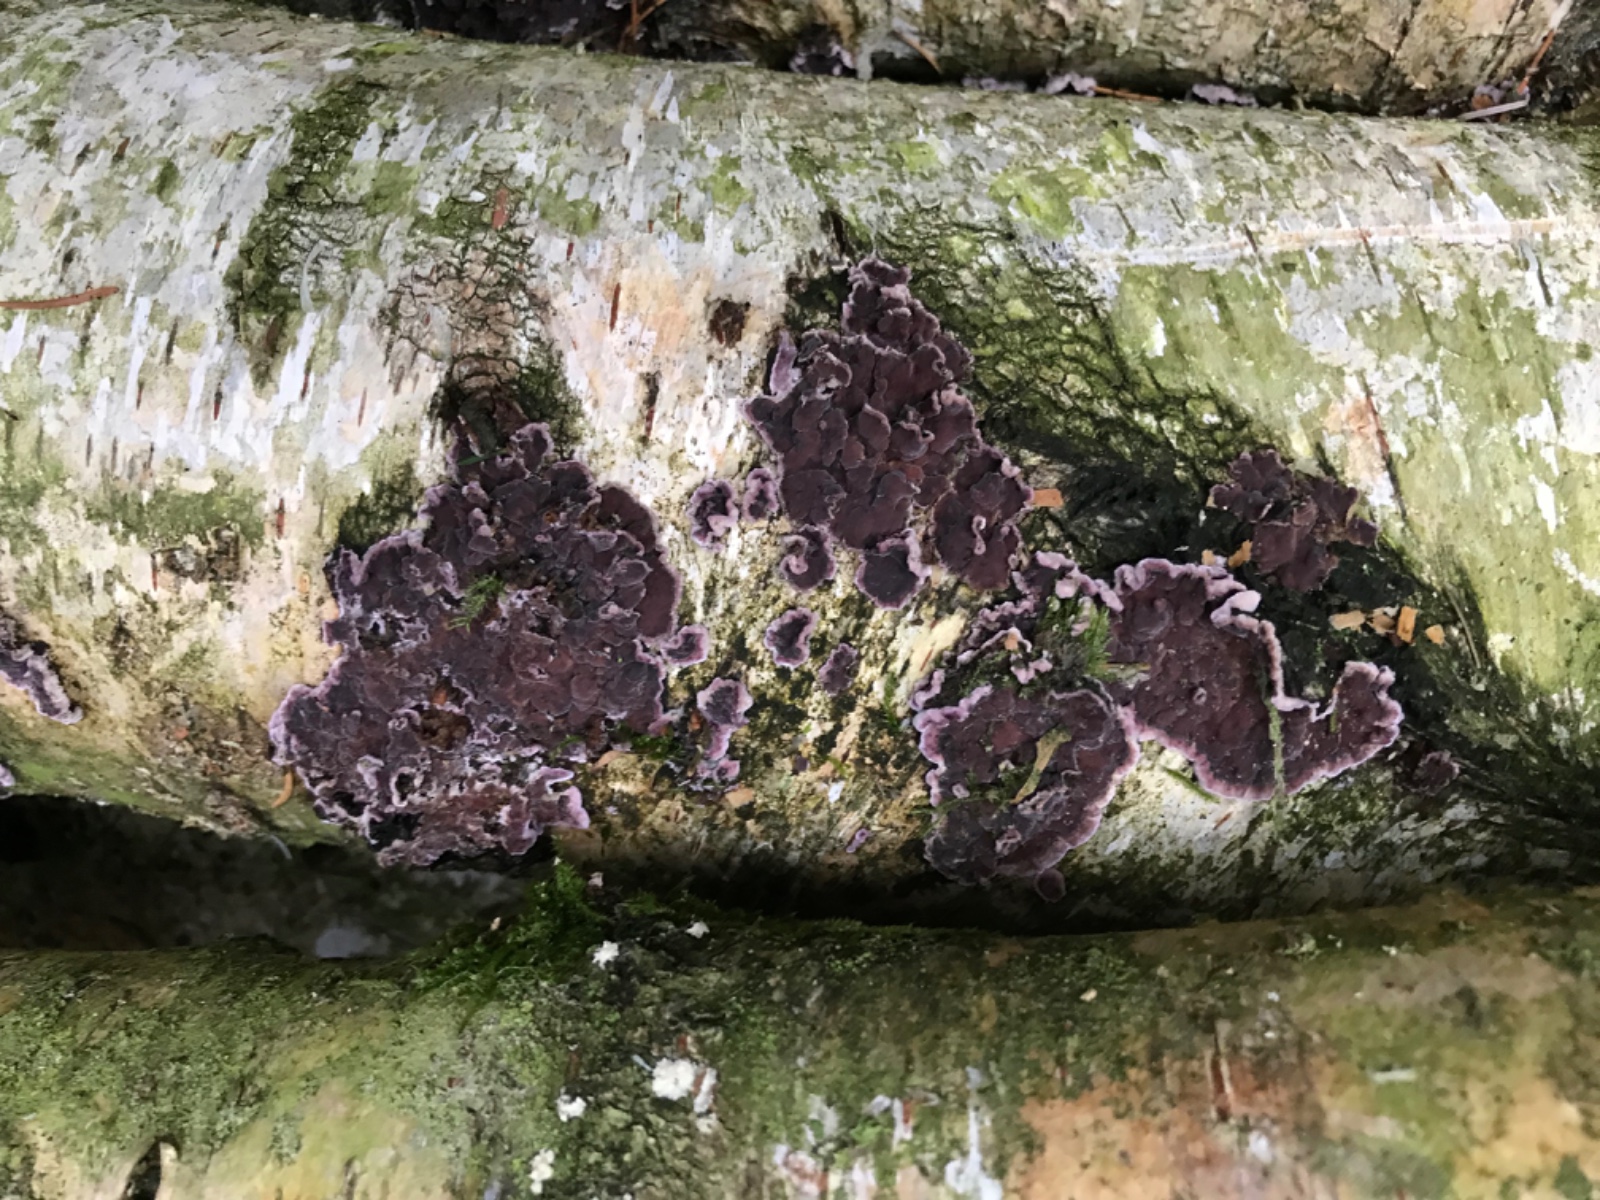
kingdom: Fungi
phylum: Basidiomycota
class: Agaricomycetes
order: Agaricales
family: Cyphellaceae
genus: Chondrostereum
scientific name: Chondrostereum purpureum
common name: purpurlædersvamp
